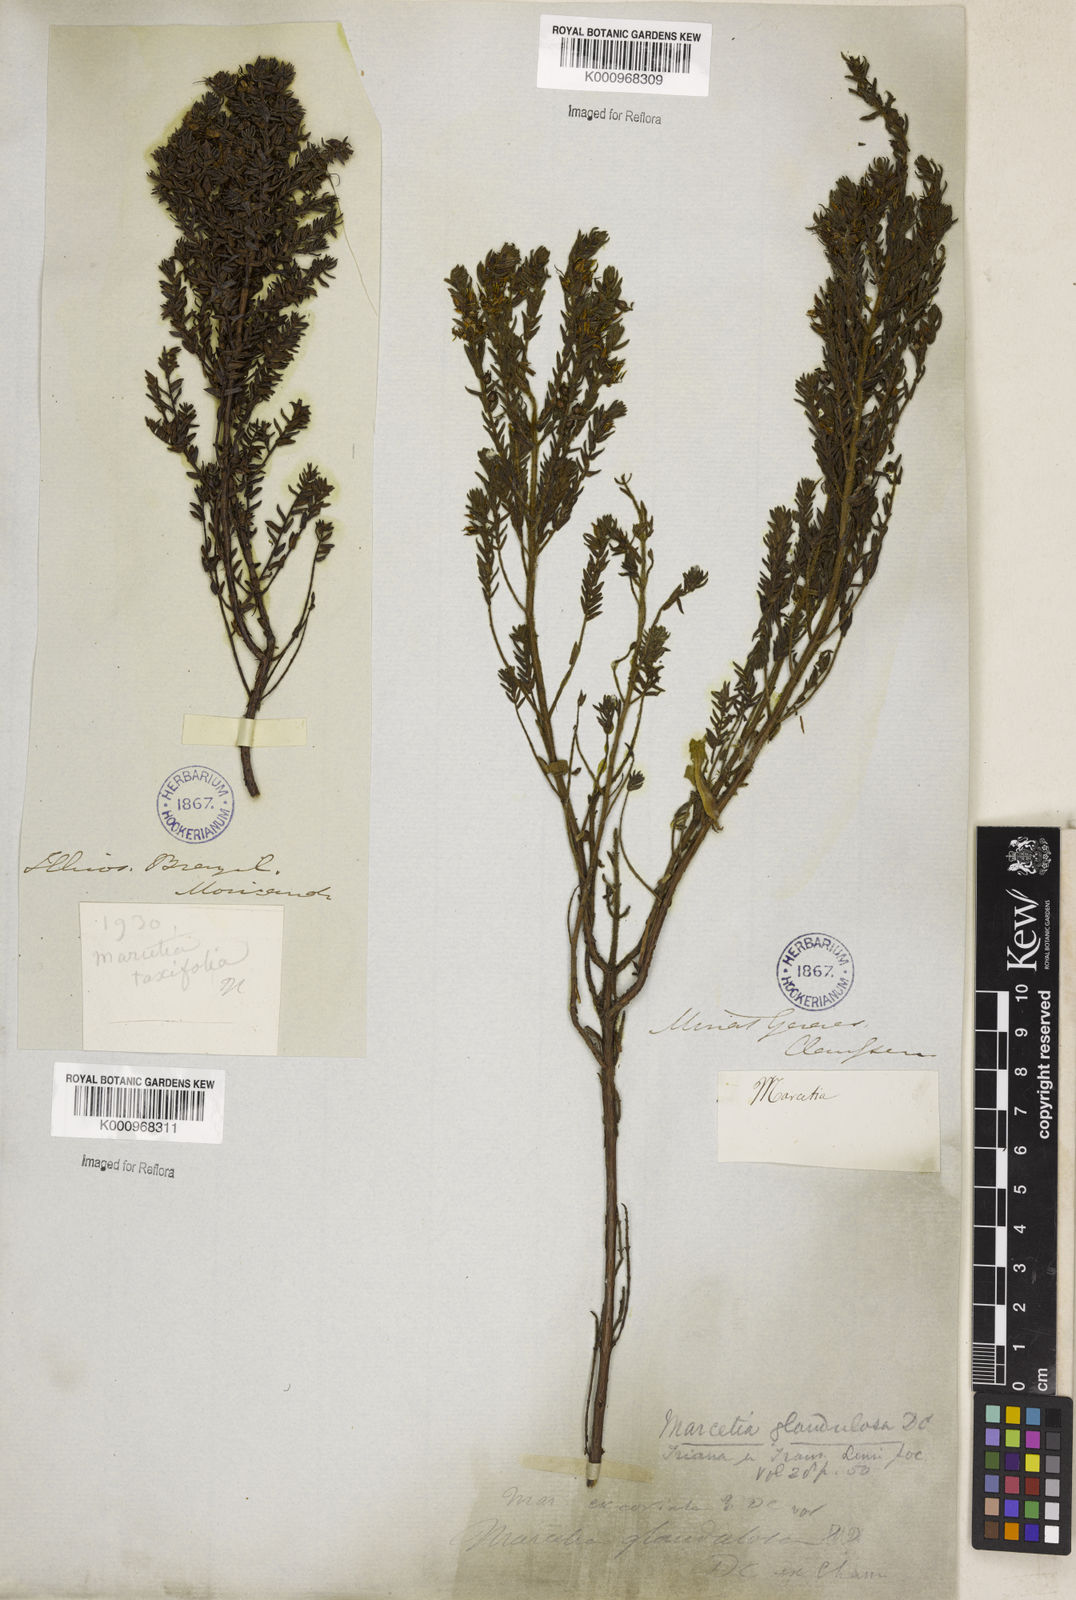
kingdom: Plantae
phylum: Tracheophyta
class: Magnoliopsida
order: Myrtales
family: Melastomataceae
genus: Marcetia
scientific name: Marcetia taxifolia
